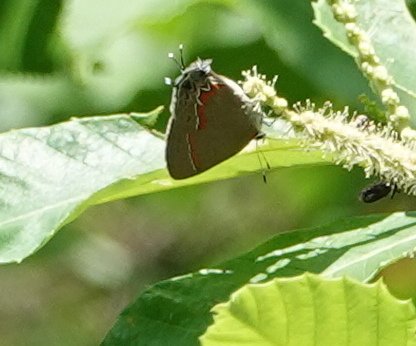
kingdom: Animalia
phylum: Arthropoda
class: Insecta
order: Lepidoptera
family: Lycaenidae
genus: Calycopis
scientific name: Calycopis cecrops
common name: Red-banded Hairstreak
